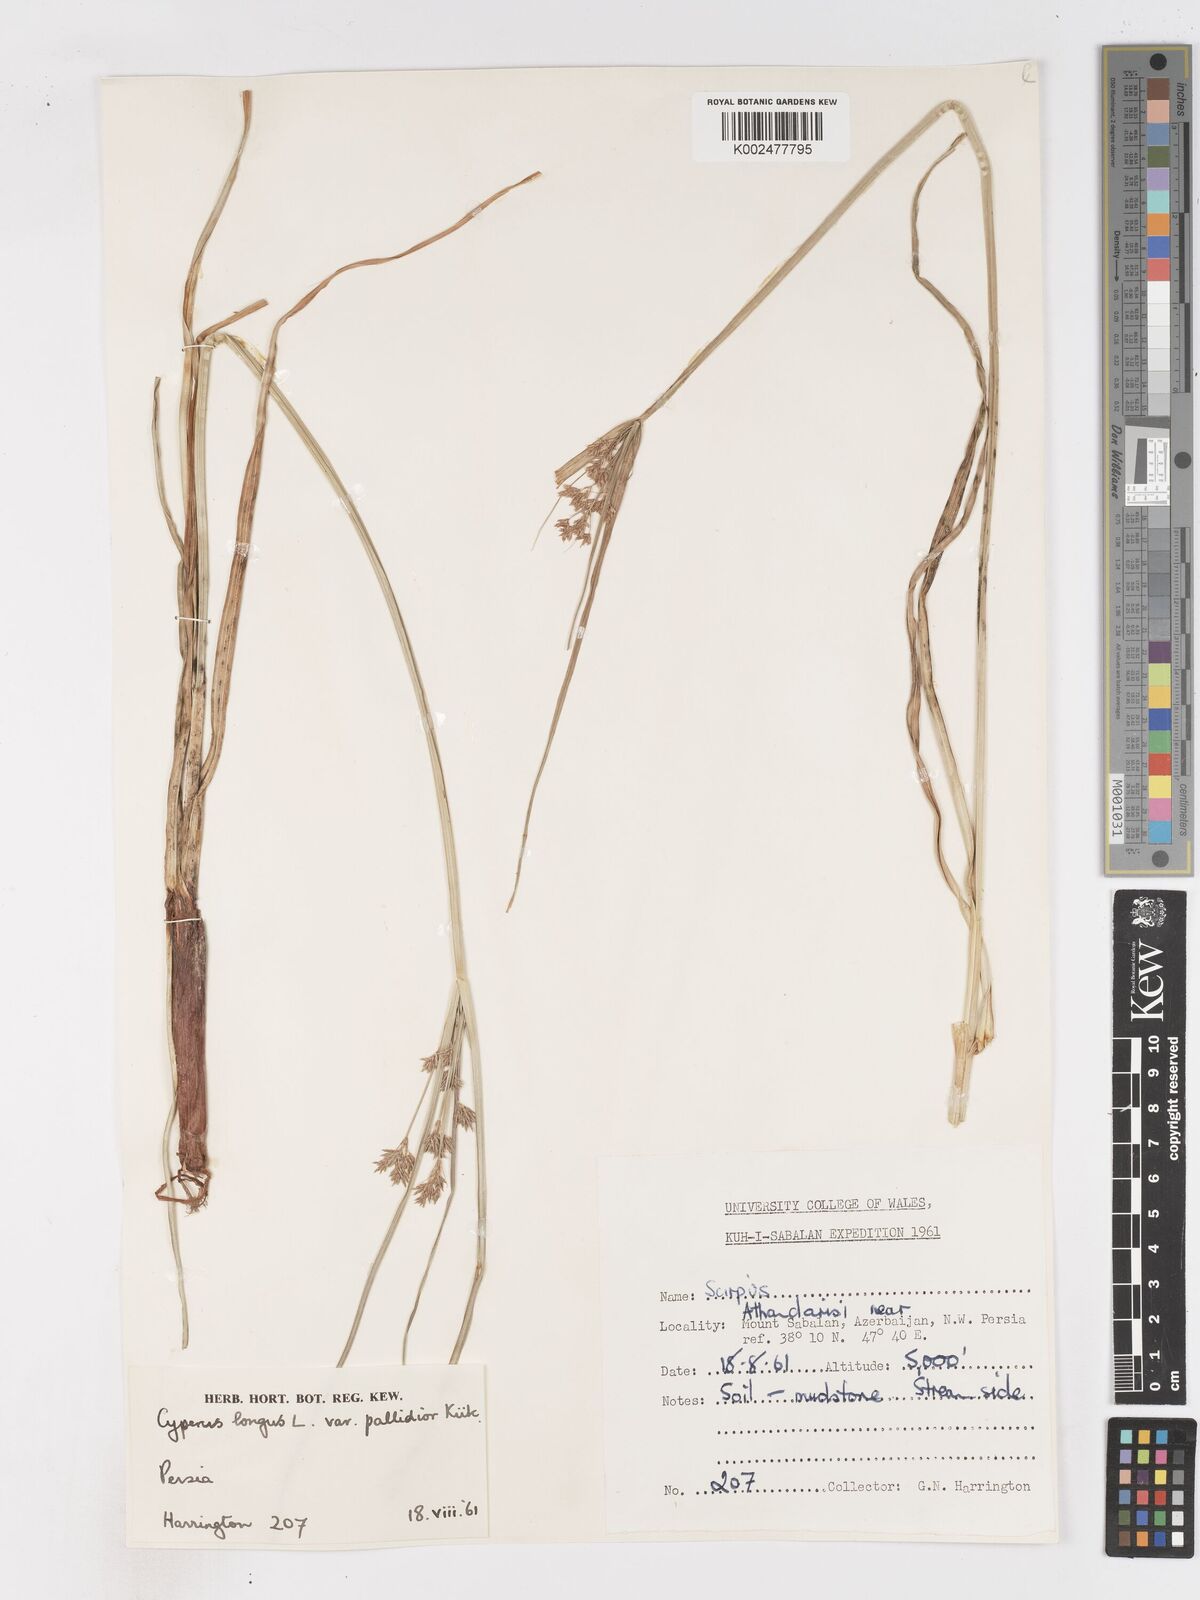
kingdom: Plantae
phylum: Tracheophyta
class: Liliopsida
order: Poales
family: Cyperaceae
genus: Cyperus
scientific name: Cyperus longus
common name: Galingale
